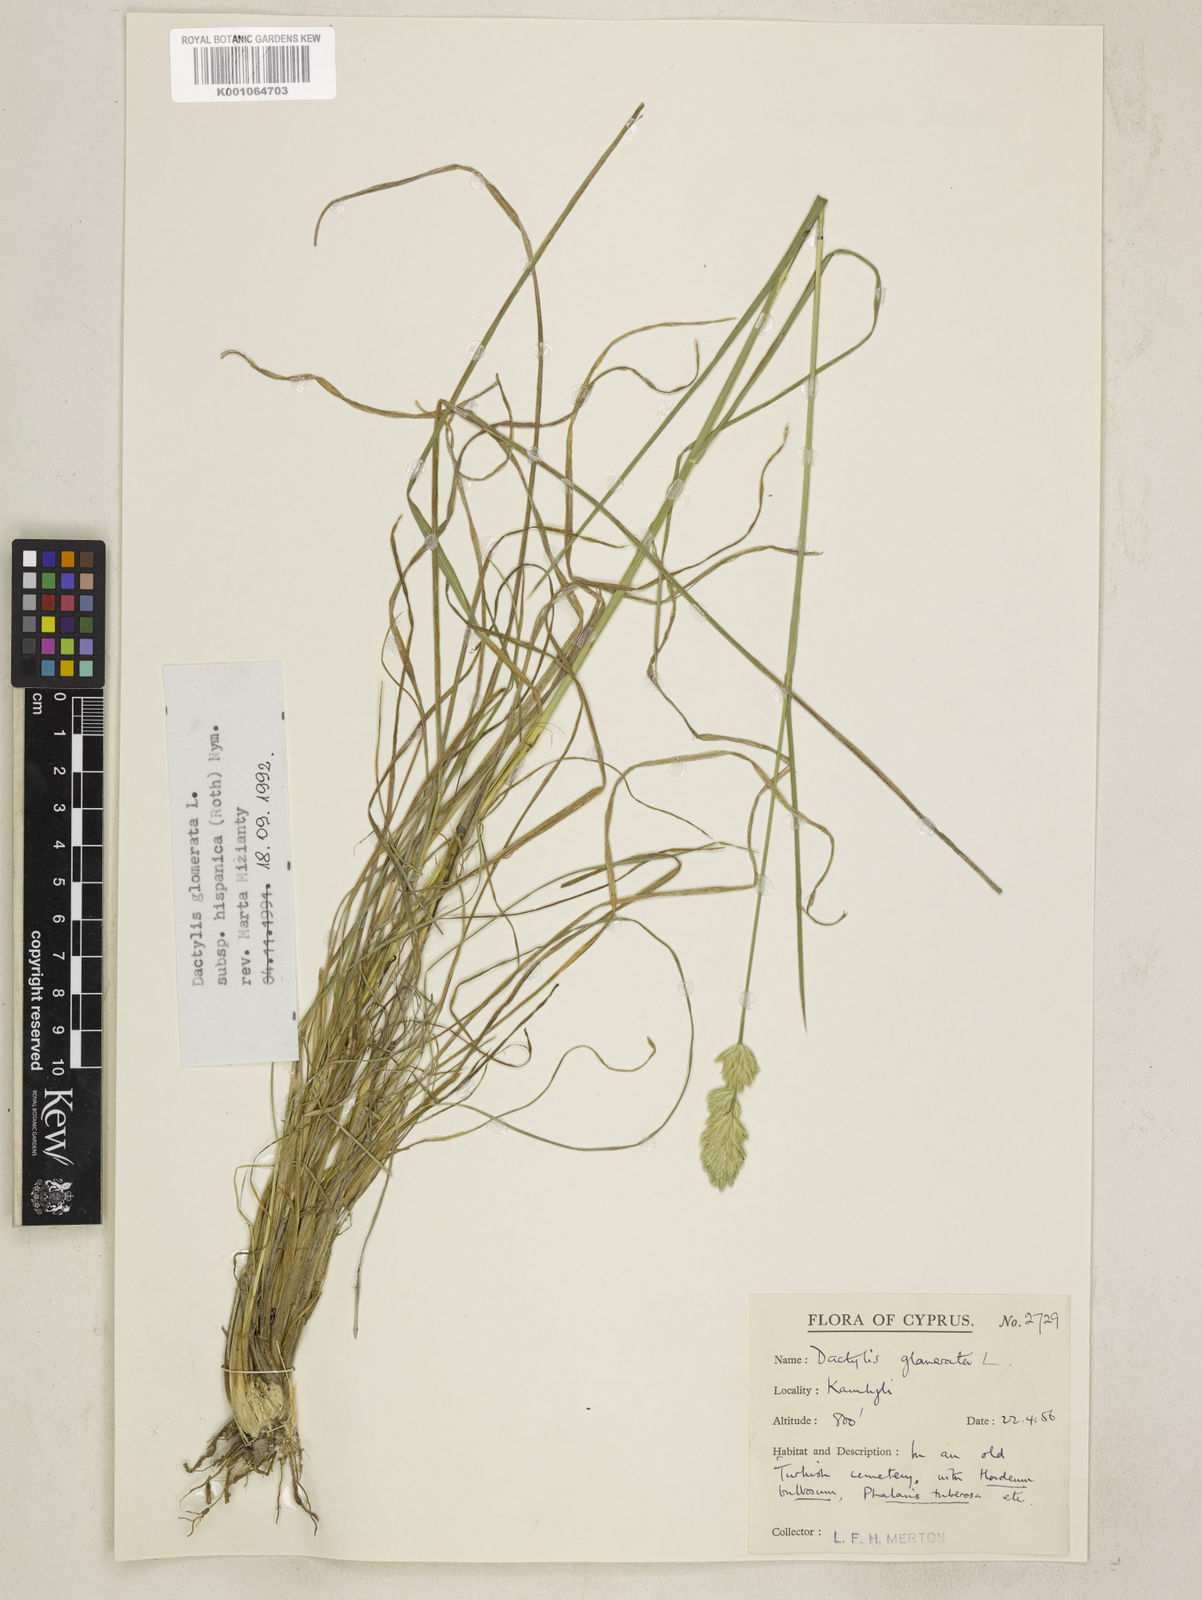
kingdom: Plantae
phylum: Tracheophyta
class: Liliopsida
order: Poales
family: Poaceae
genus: Dactylis
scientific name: Dactylis glomerata
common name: Orchardgrass
